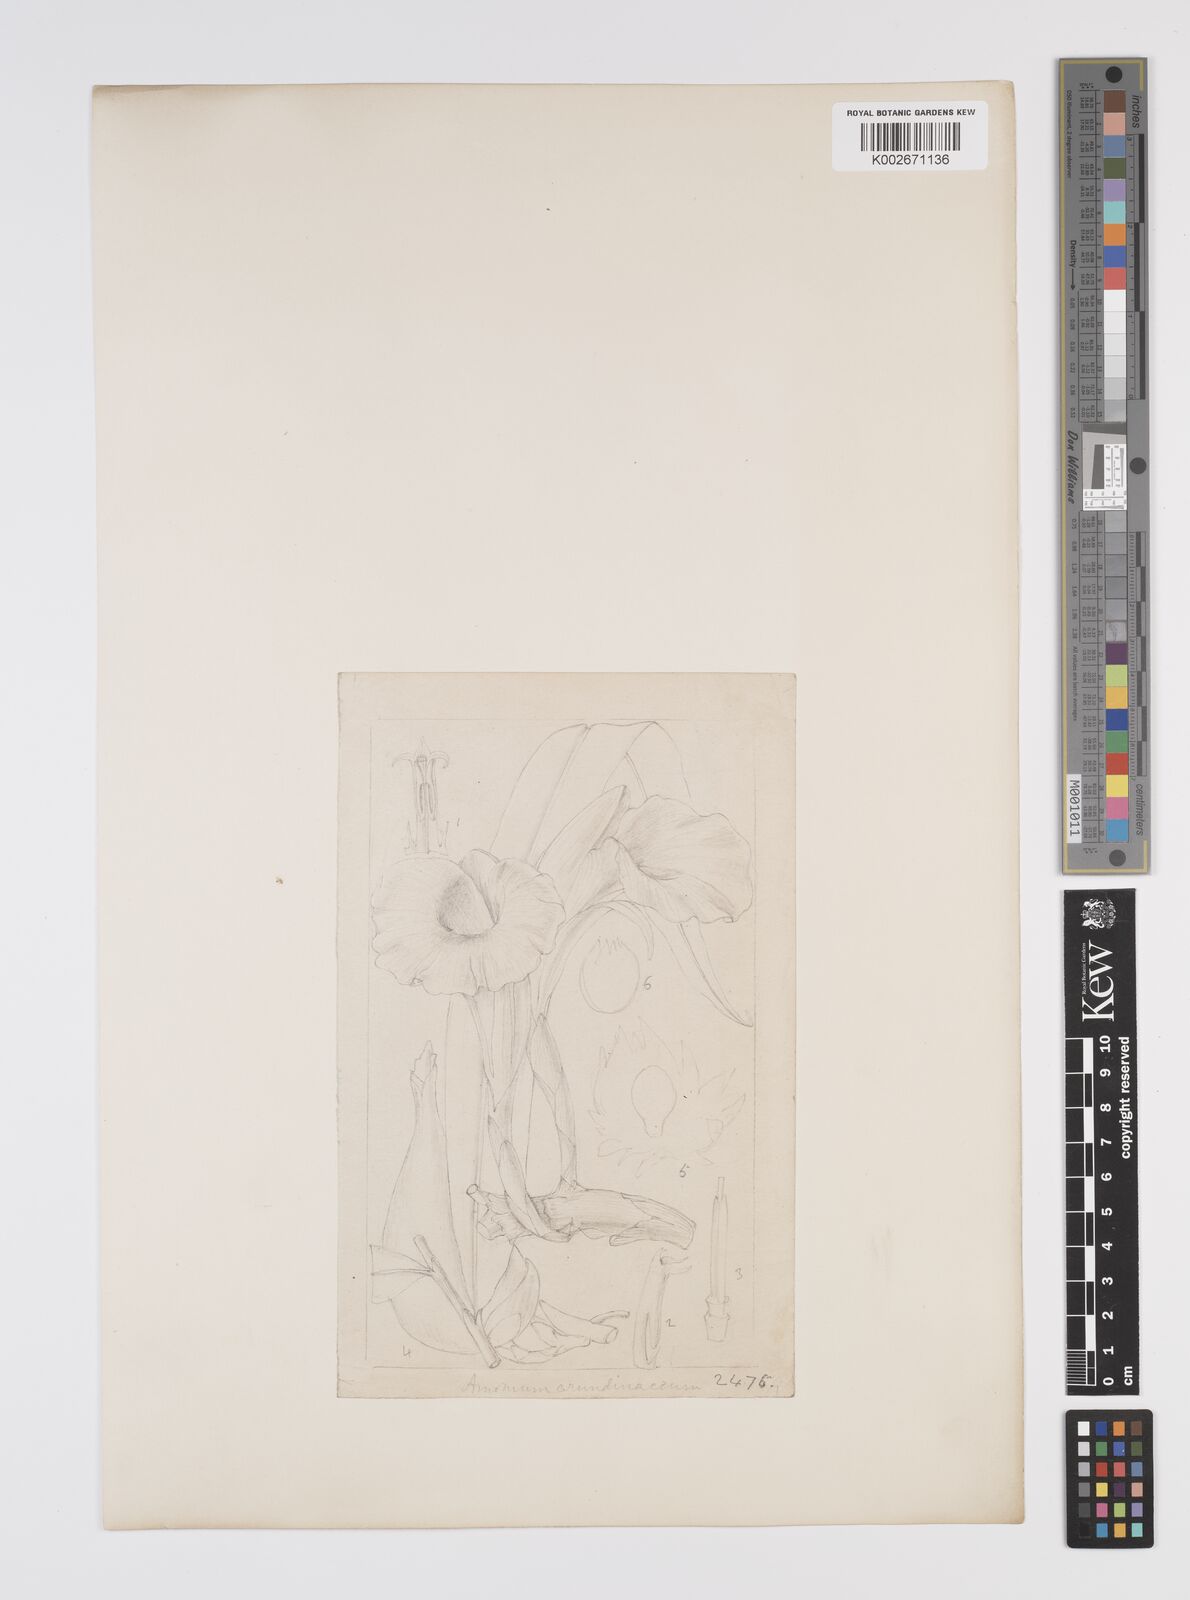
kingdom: Plantae
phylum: Tracheophyta
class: Liliopsida
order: Zingiberales
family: Zingiberaceae
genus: Aframomum
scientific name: Aframomum arundinaceum
